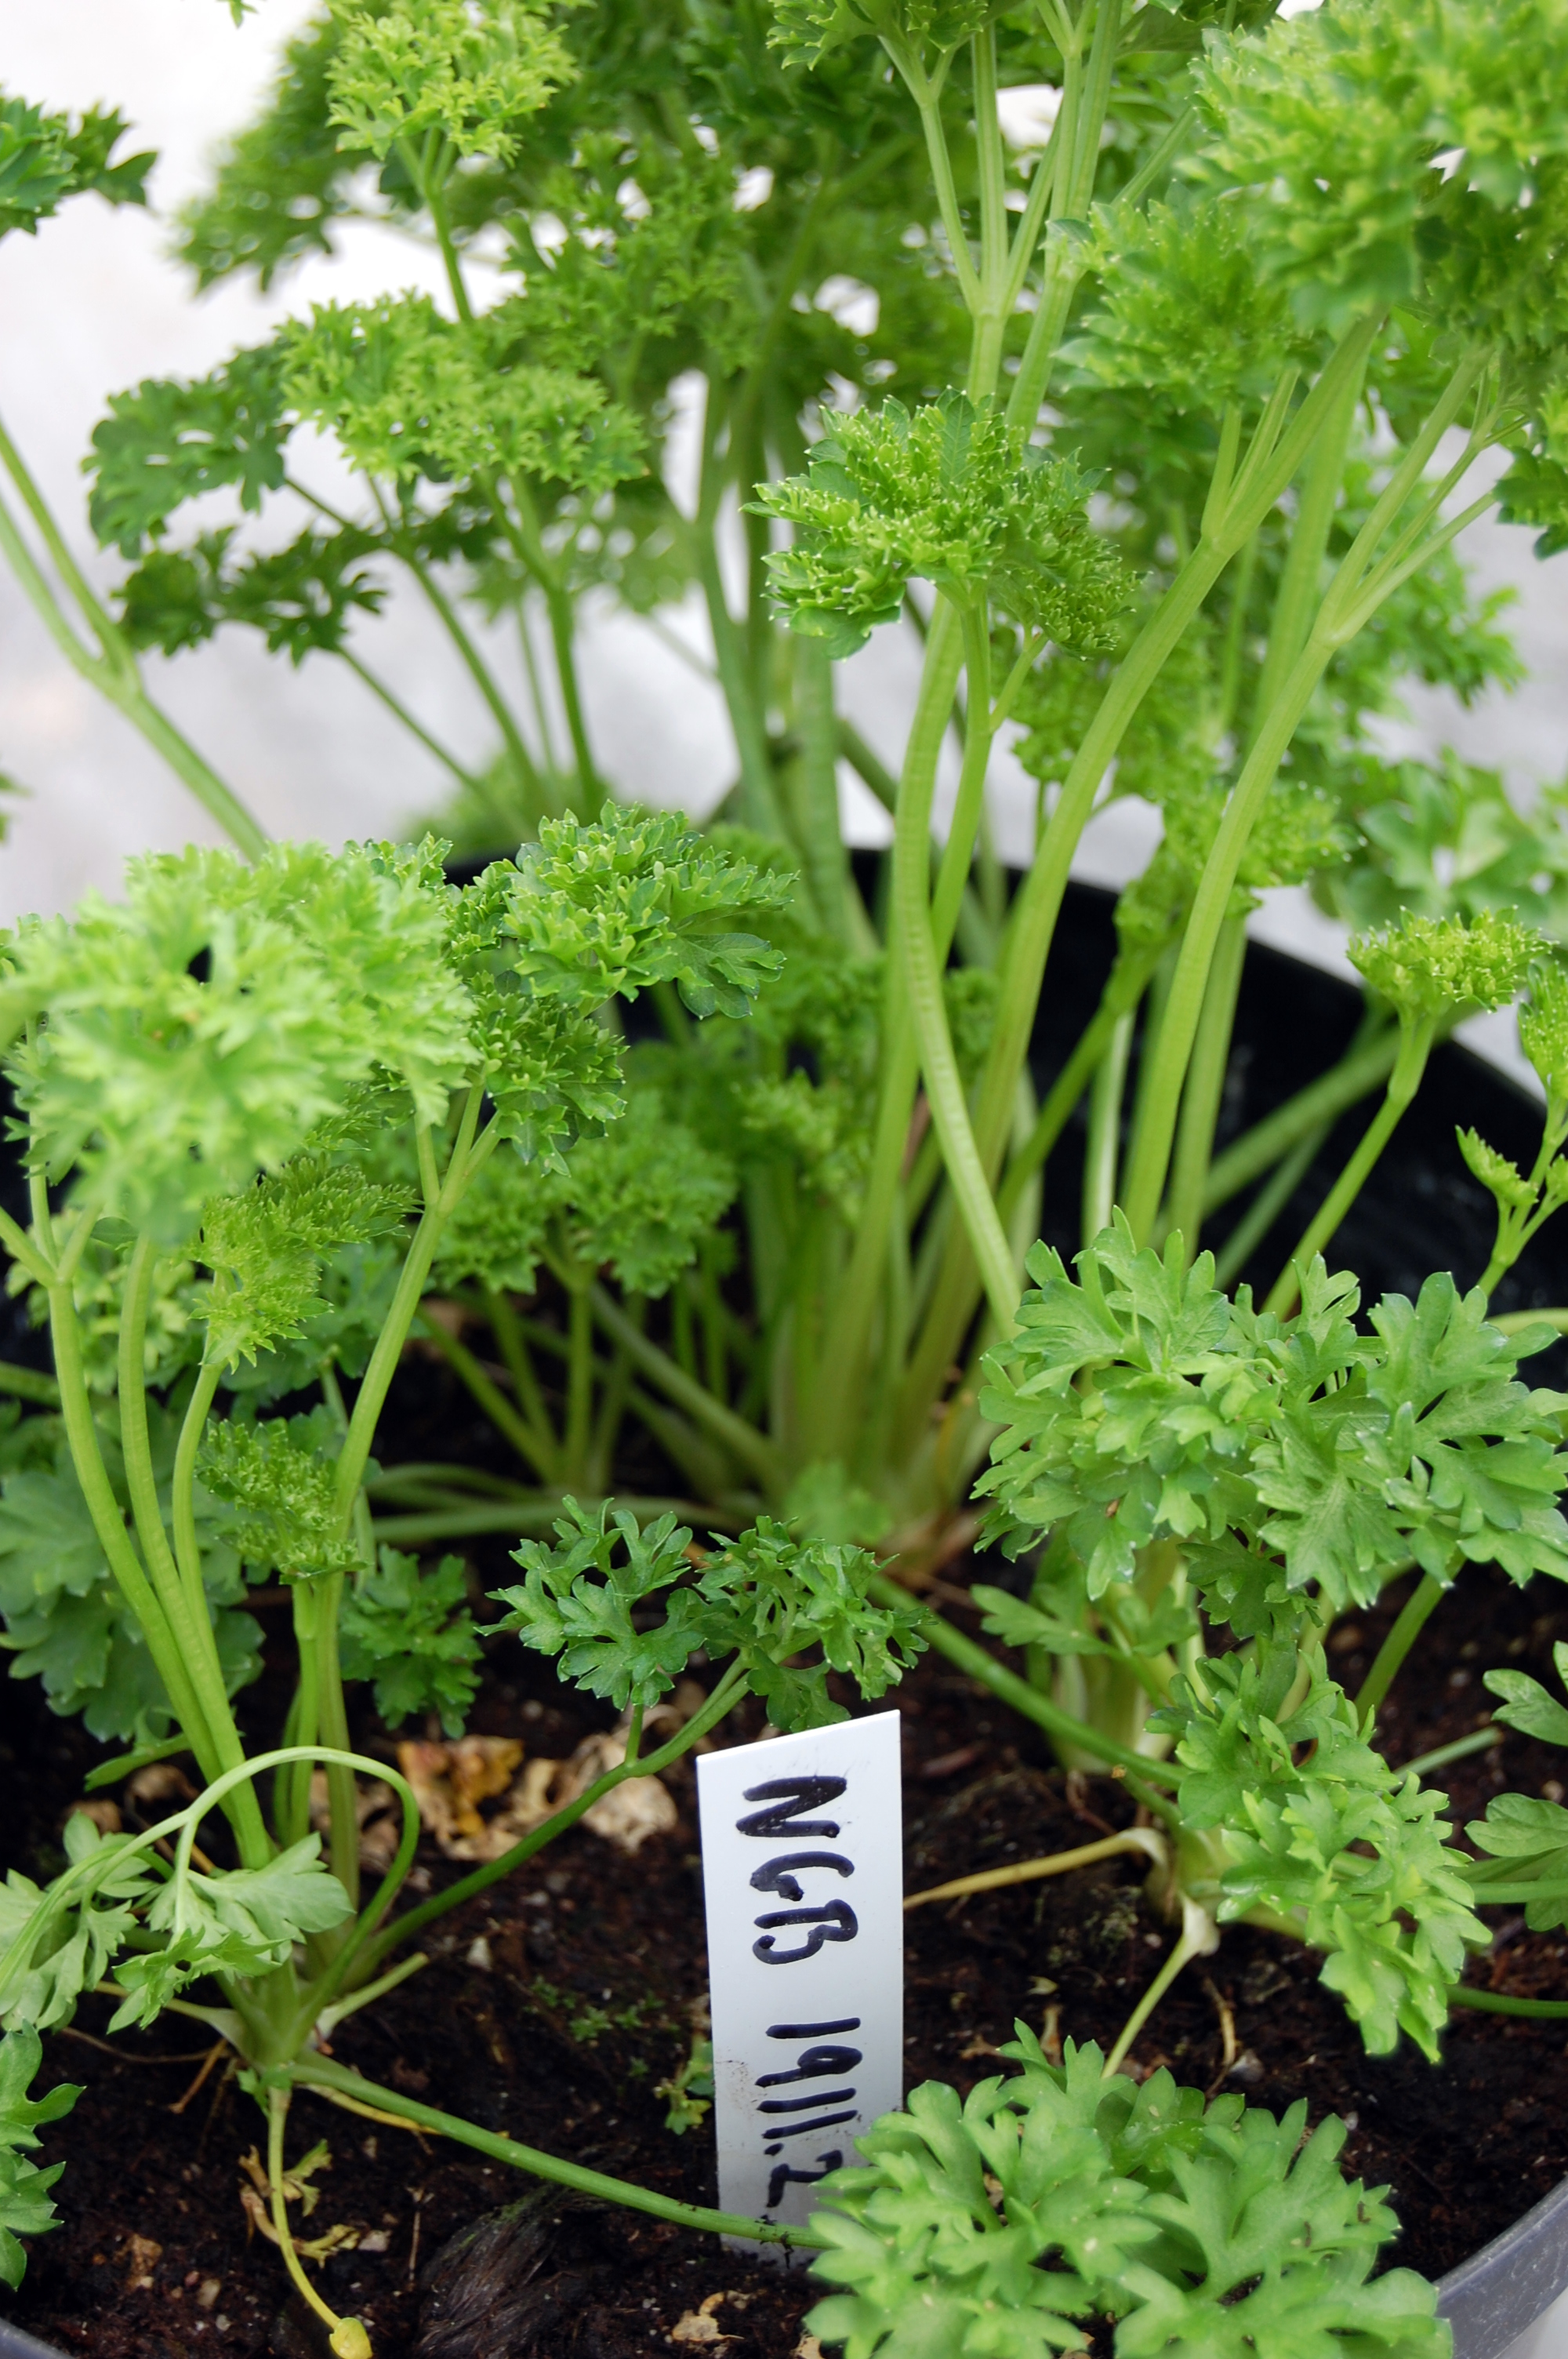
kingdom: Plantae
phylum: Tracheophyta
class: Magnoliopsida
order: Apiales
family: Apiaceae
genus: Petroselinum
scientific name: Petroselinum crispum
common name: Parsley
